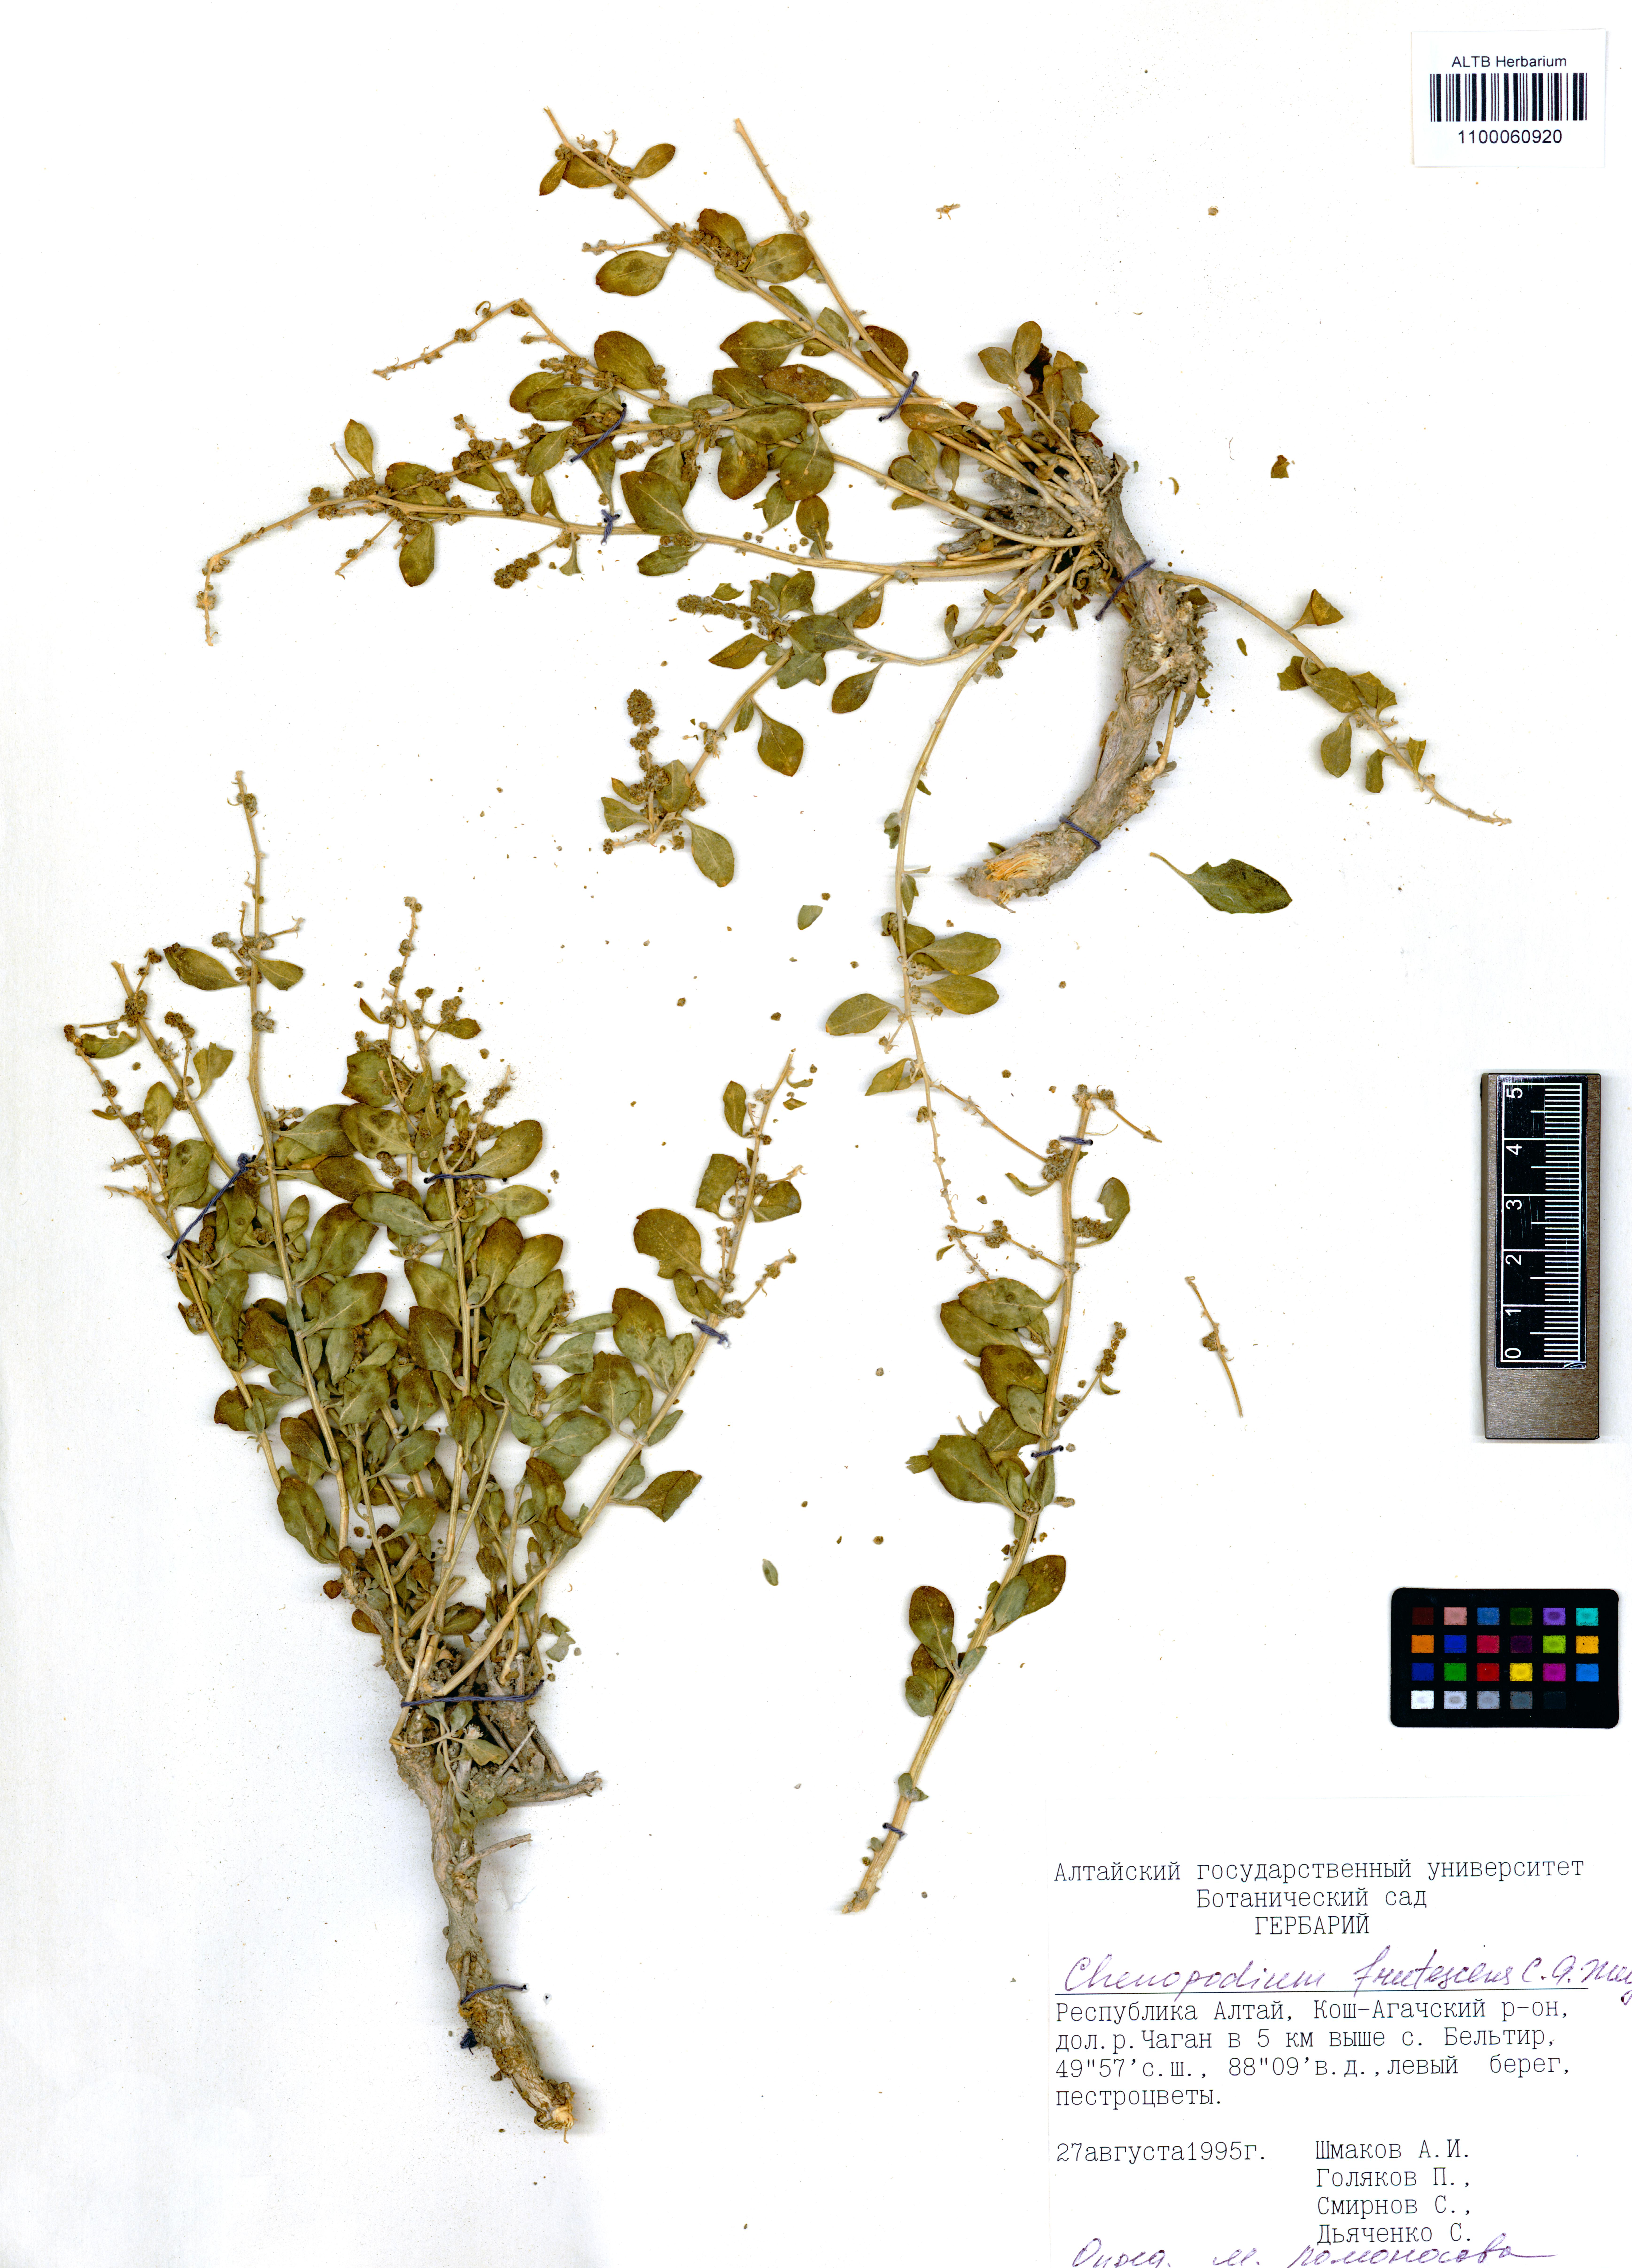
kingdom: Plantae
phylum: Tracheophyta
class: Magnoliopsida
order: Caryophyllales
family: Amaranthaceae
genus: Chenopodium
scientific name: Chenopodium frutescens
